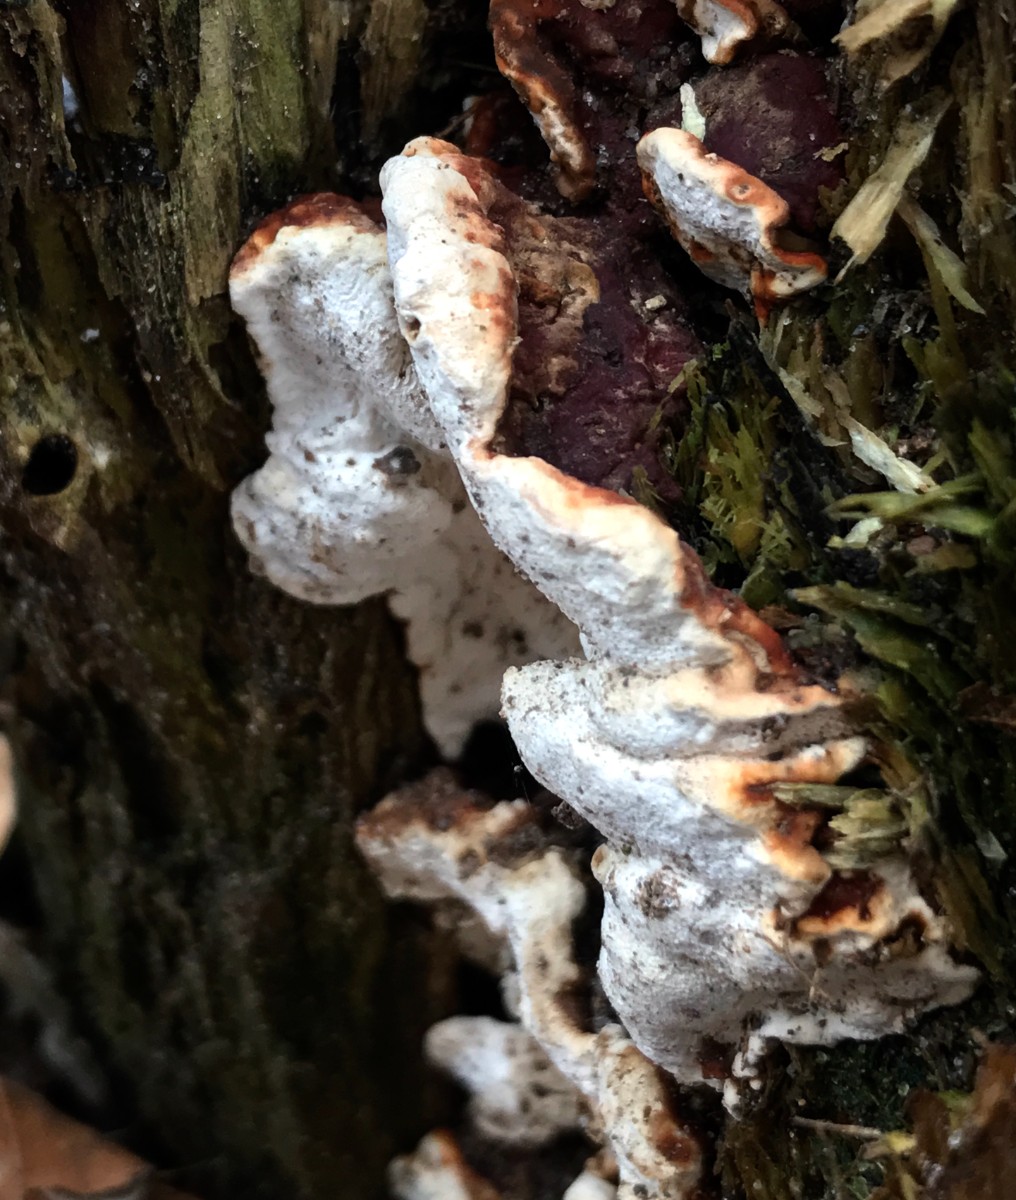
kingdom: Fungi
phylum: Basidiomycota
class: Agaricomycetes
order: Russulales
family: Bondarzewiaceae
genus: Heterobasidion
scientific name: Heterobasidion annosum
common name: almindelig rodfordærver
